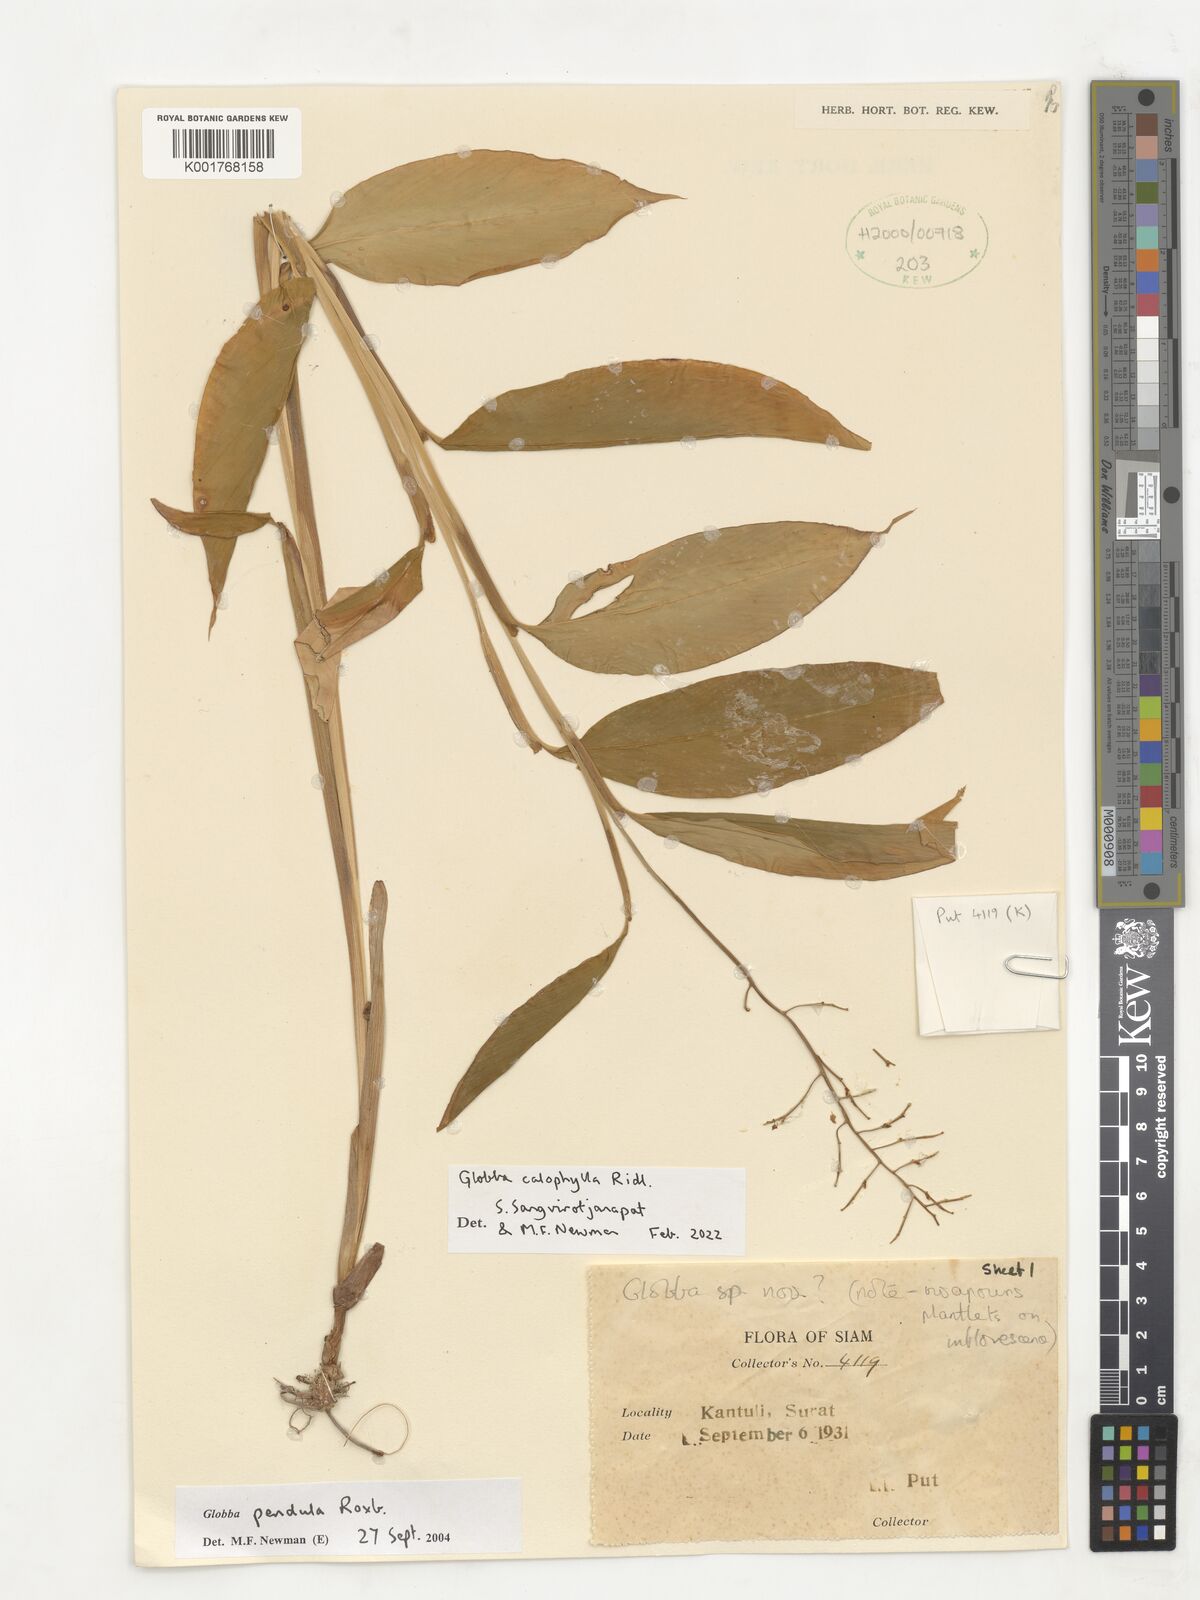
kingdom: Plantae
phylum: Tracheophyta
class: Liliopsida
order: Zingiberales
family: Zingiberaceae
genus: Globba
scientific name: Globba pendula
